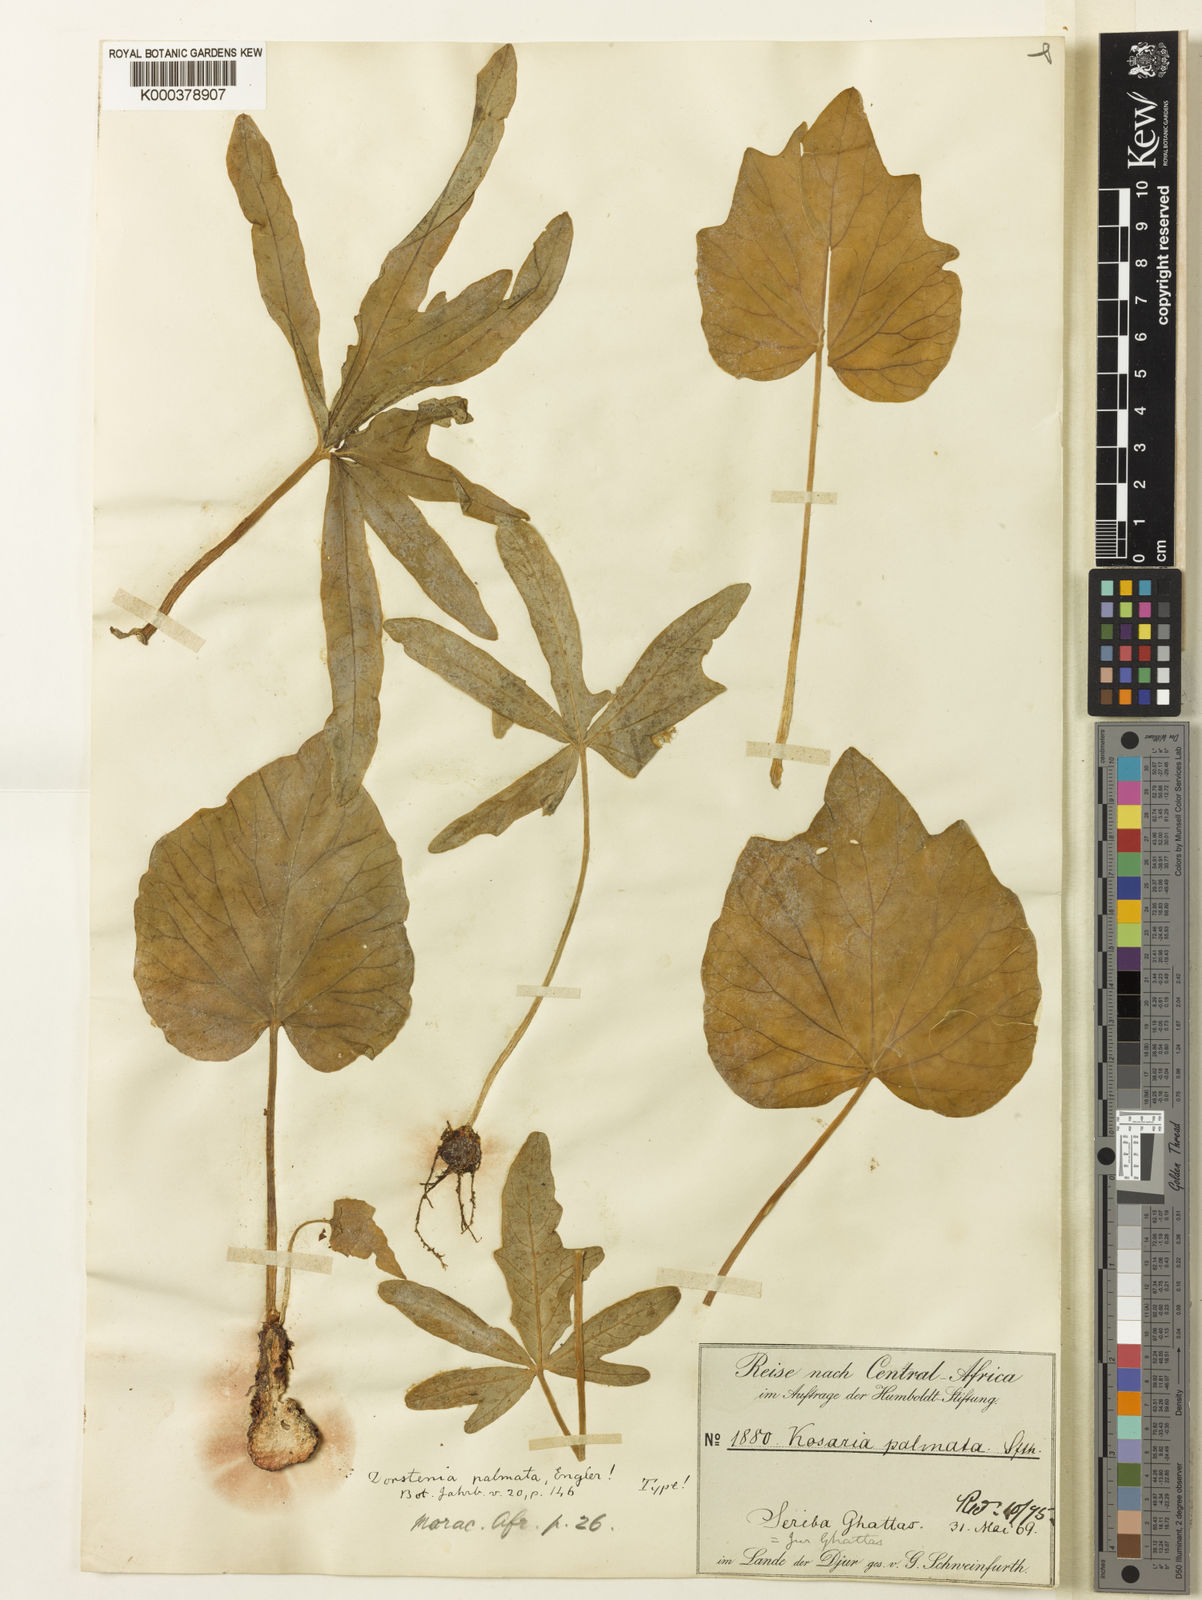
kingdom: Plantae
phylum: Tracheophyta
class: Magnoliopsida
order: Rosales
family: Moraceae
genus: Dorstenia
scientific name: Dorstenia barnimiana
